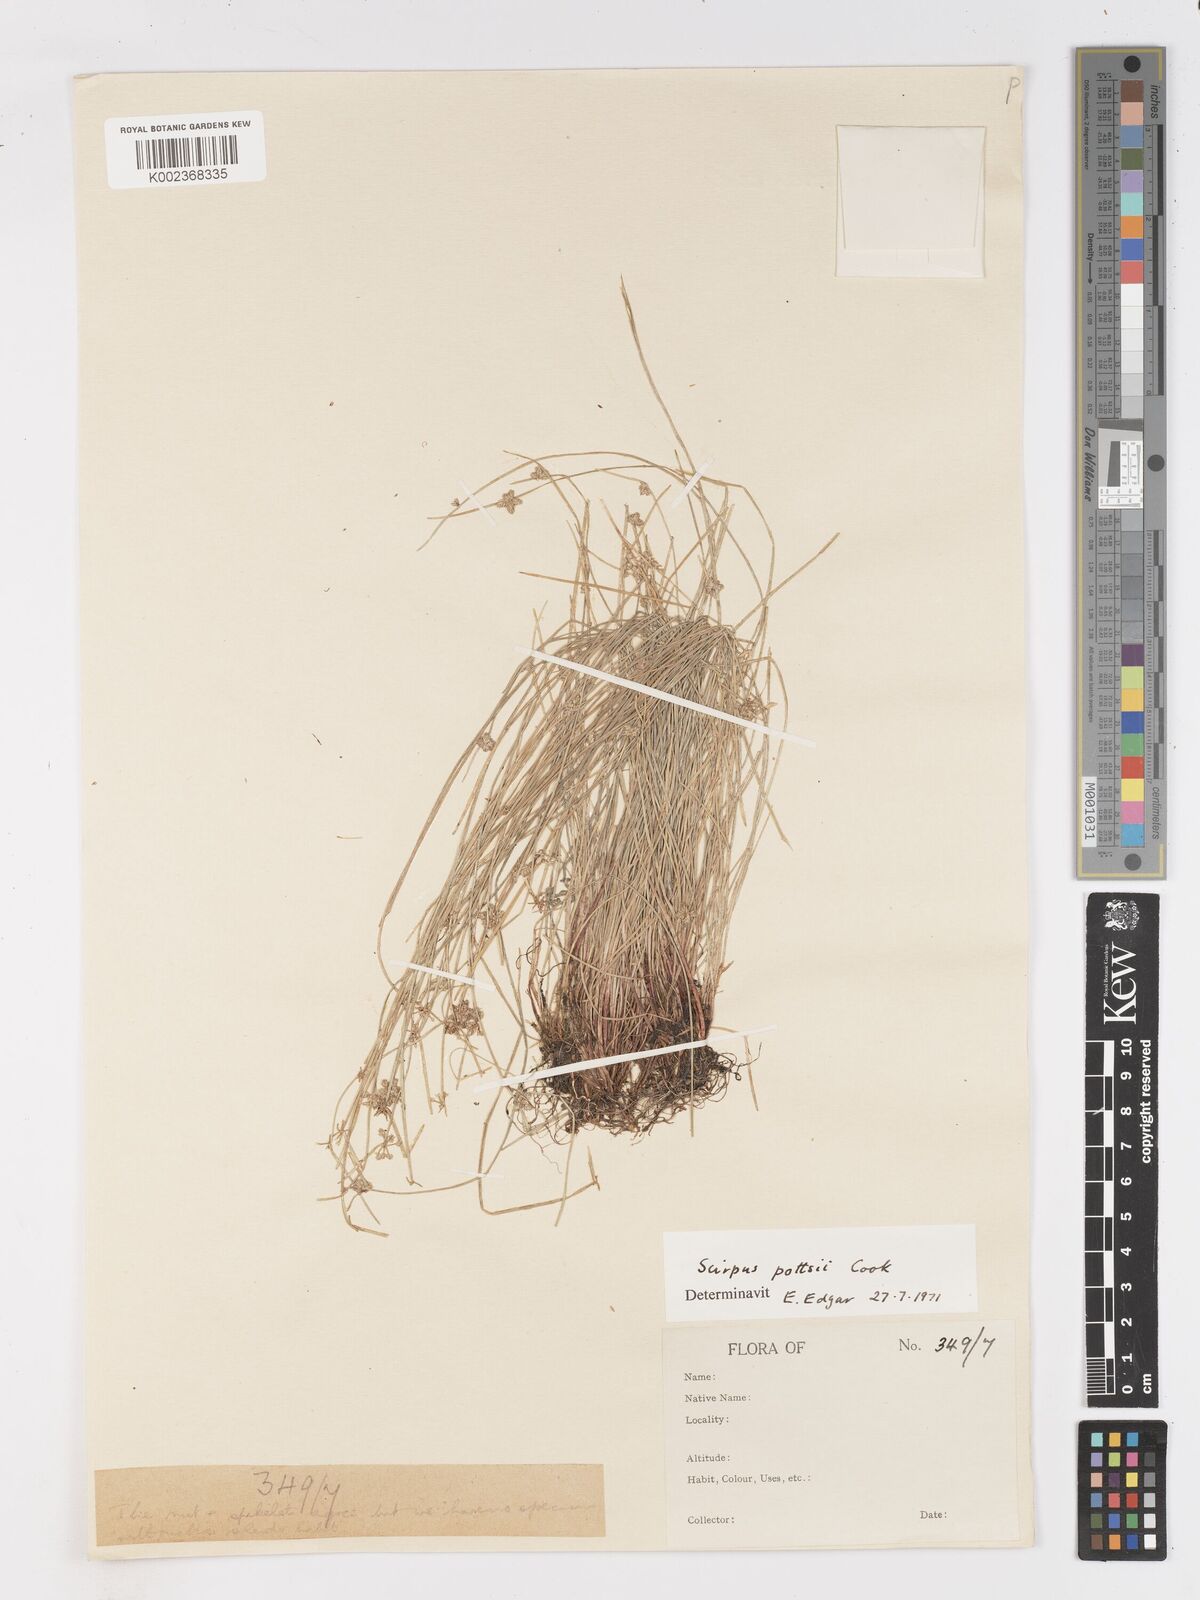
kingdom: Plantae
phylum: Tracheophyta
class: Liliopsida
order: Poales
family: Cyperaceae
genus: Isolepis
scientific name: Isolepis pottsii
